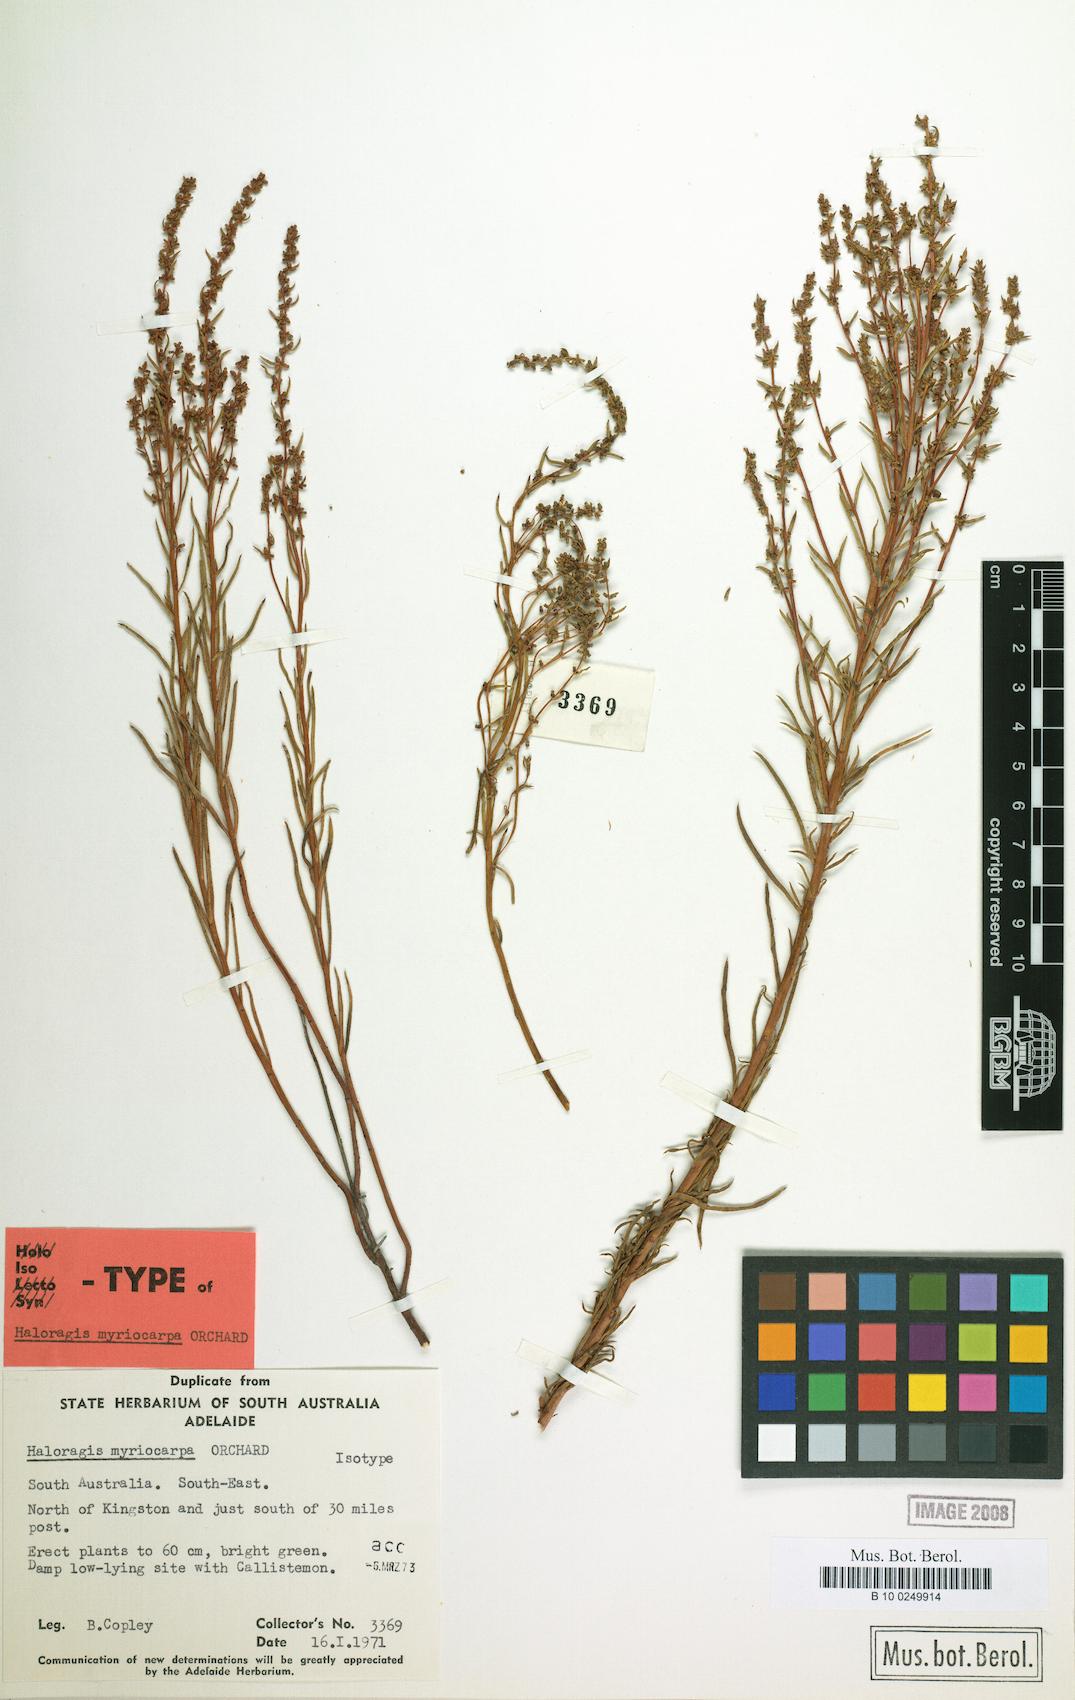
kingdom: Plantae
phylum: Tracheophyta
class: Magnoliopsida
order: Saxifragales
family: Haloragaceae
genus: Haloragis
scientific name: Haloragis myriocarpa
